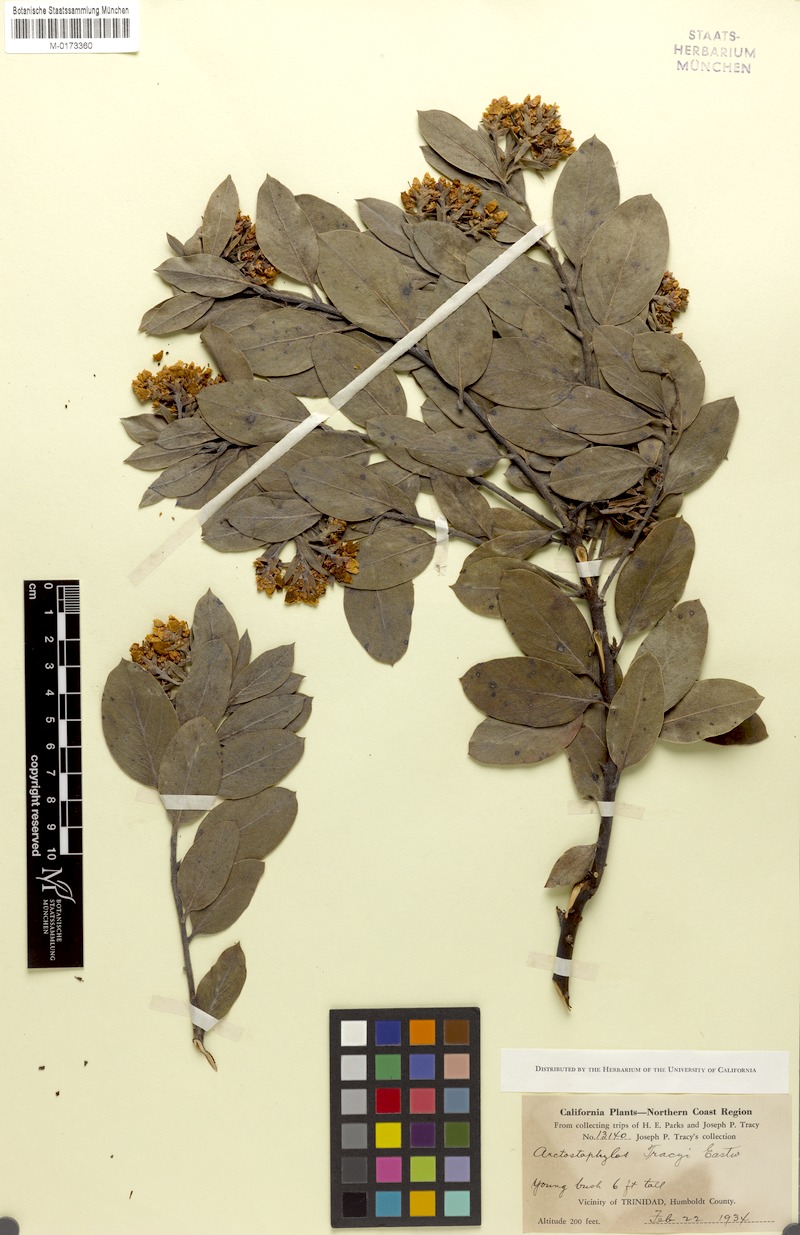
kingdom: Plantae
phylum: Tracheophyta
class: Magnoliopsida
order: Ericales
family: Ericaceae
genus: Arctostaphylos
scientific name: Arctostaphylos columbiana
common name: Bristly bearberry
